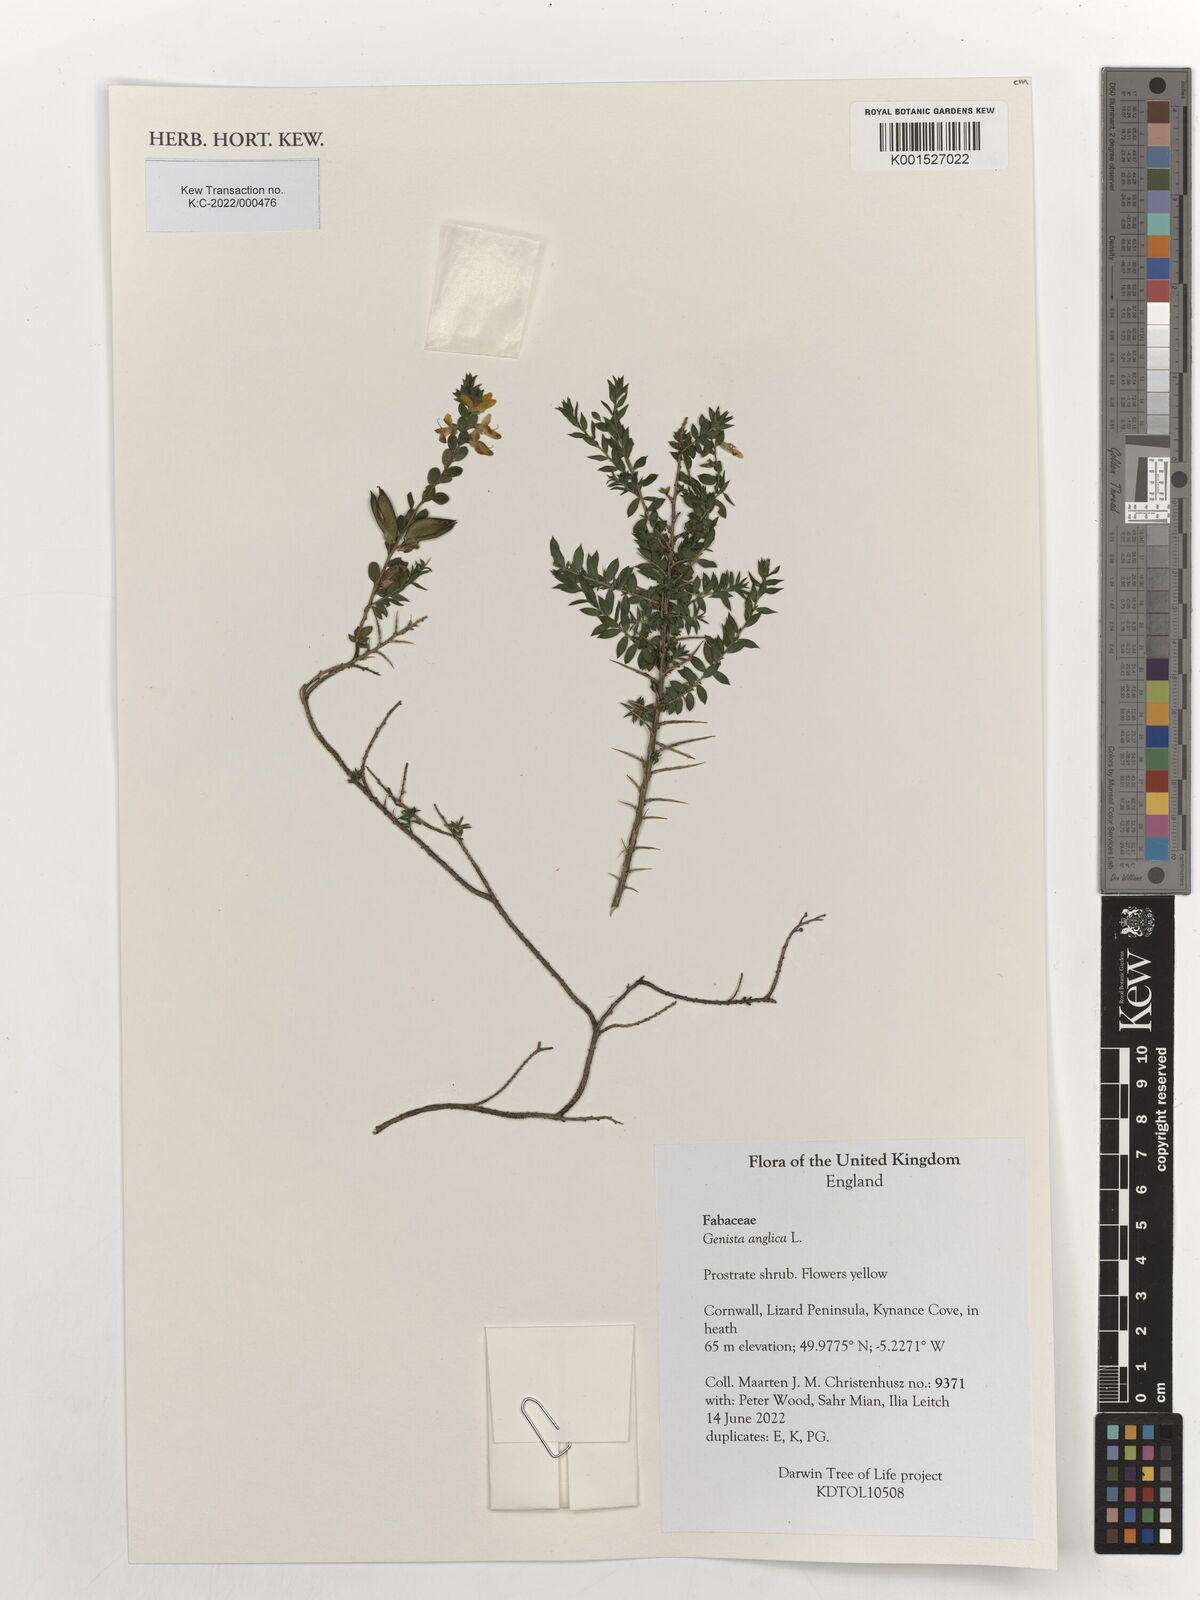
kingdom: Plantae
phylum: Tracheophyta
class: Magnoliopsida
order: Fabales
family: Fabaceae
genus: Genista
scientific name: Genista anglica
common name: Petty whin
